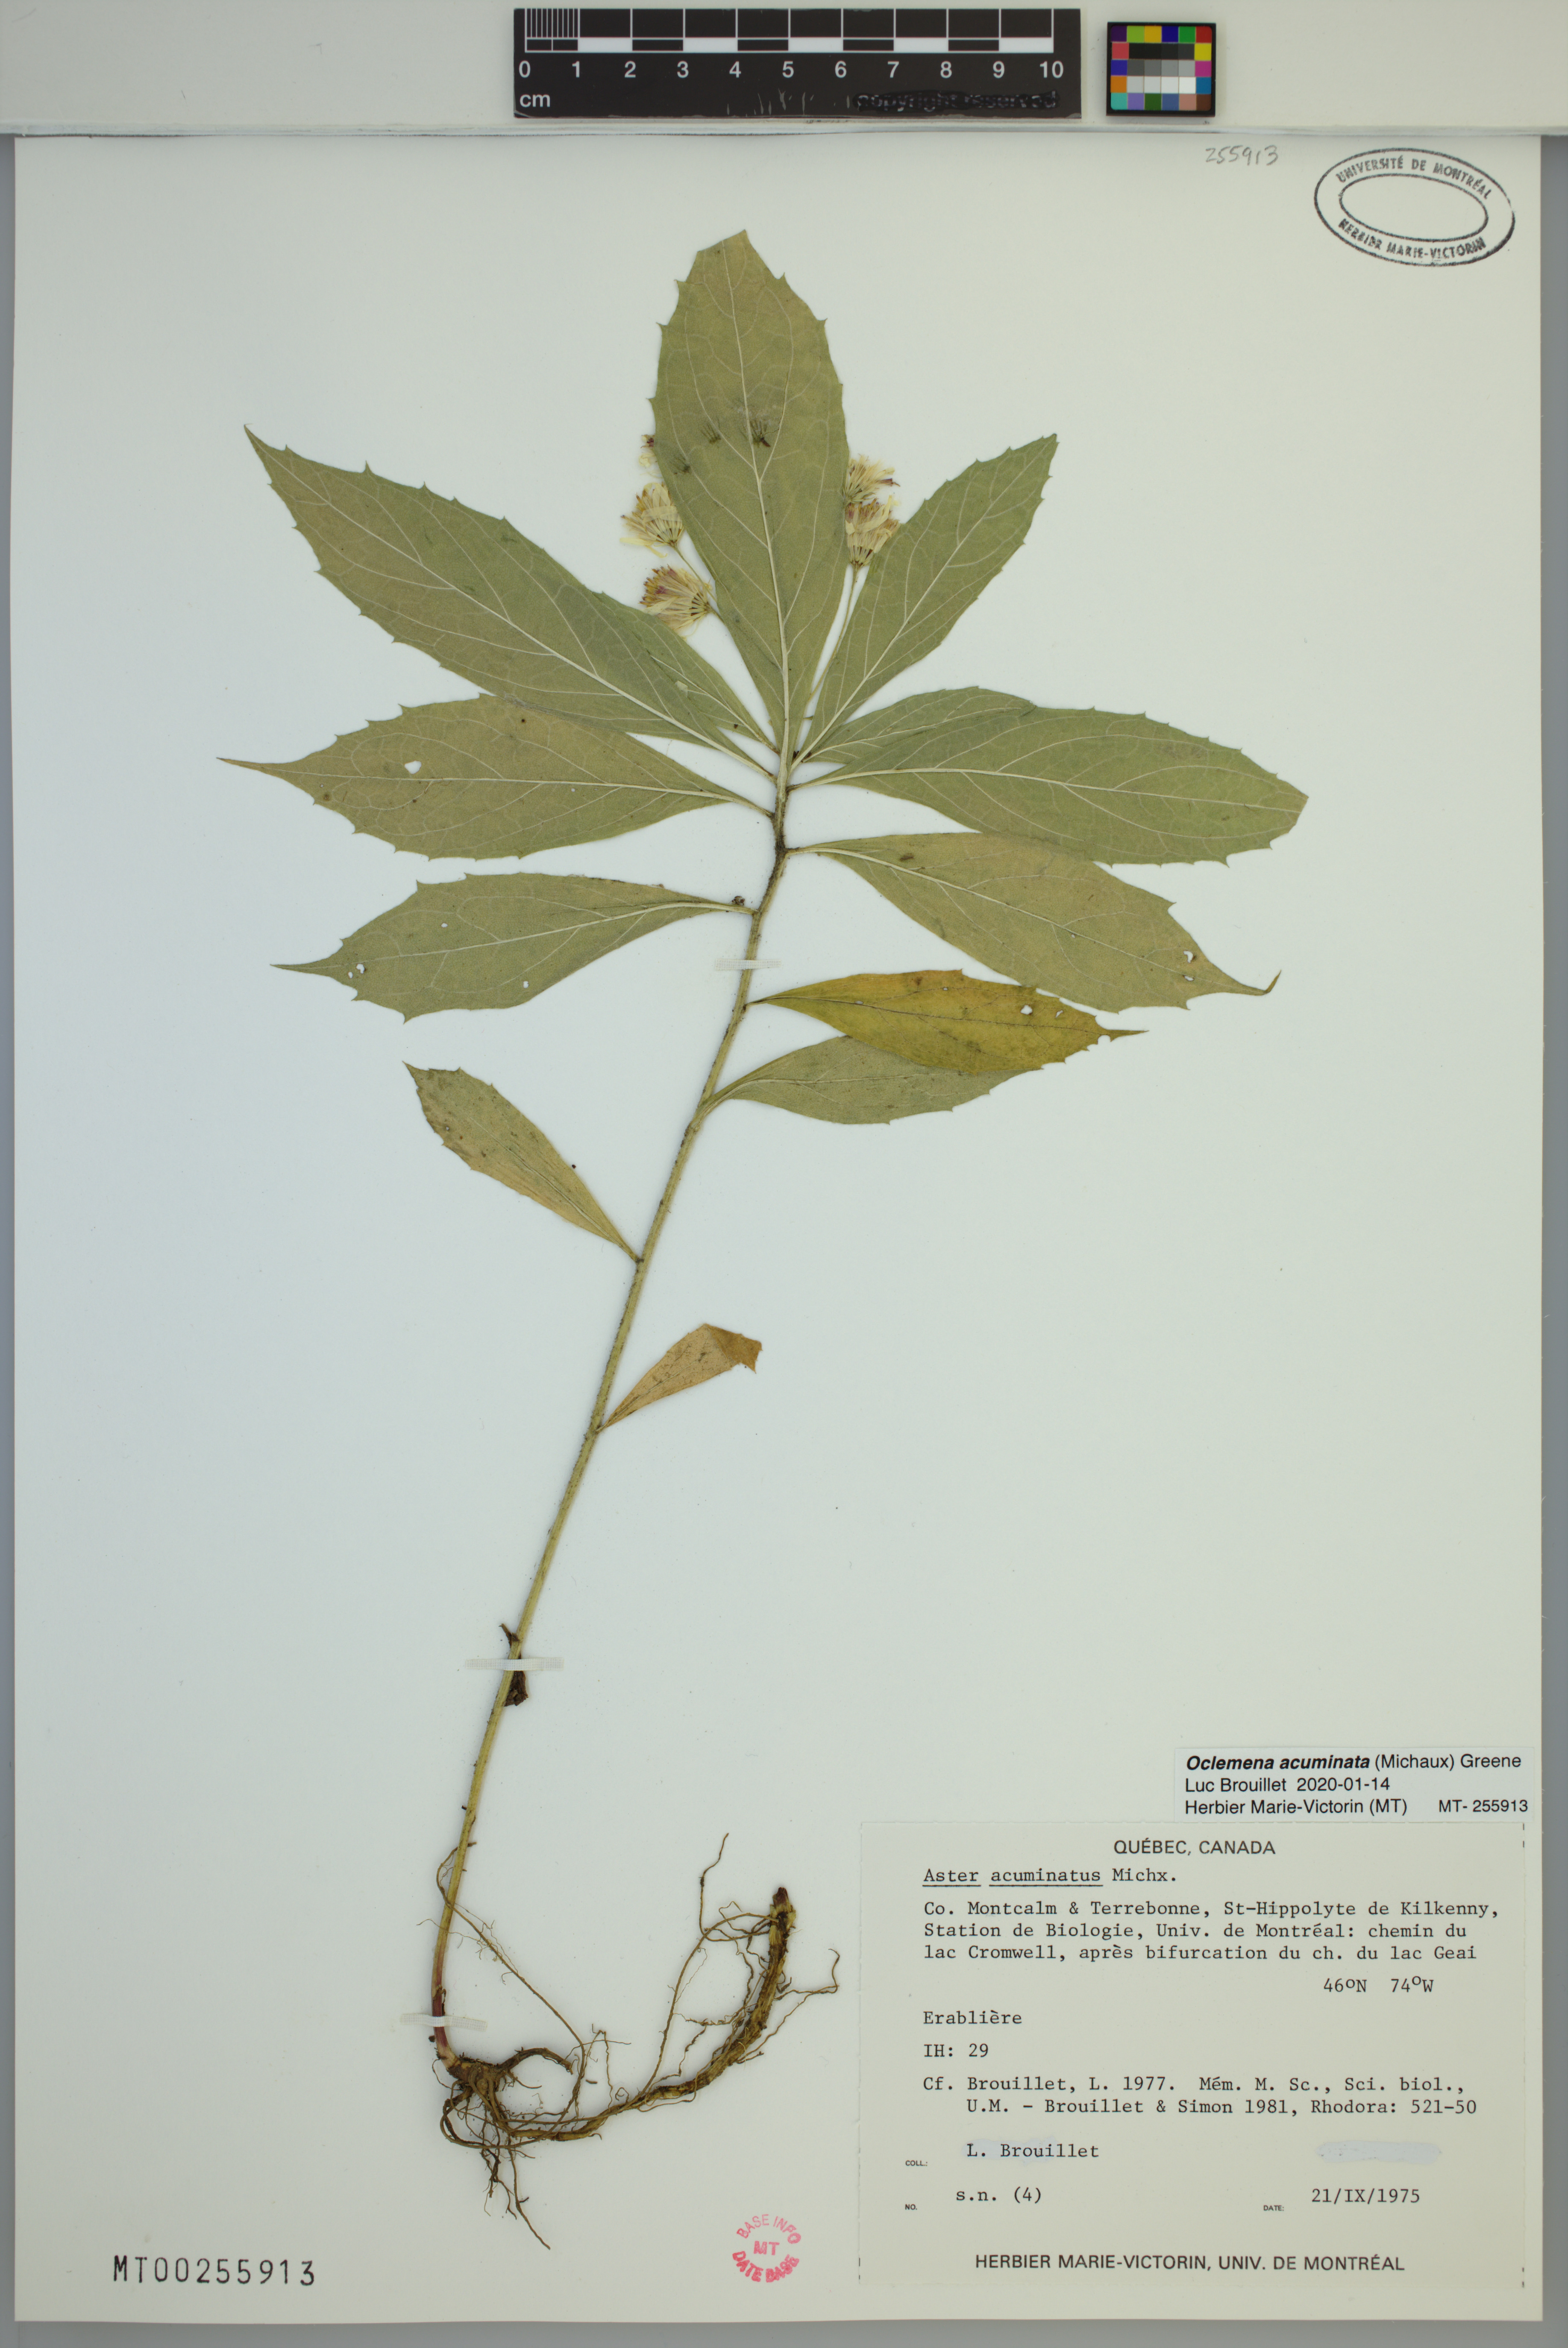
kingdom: Plantae
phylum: Tracheophyta
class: Magnoliopsida
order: Asterales
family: Asteraceae
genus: Oclemena
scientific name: Oclemena acuminata
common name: Mountain aster
